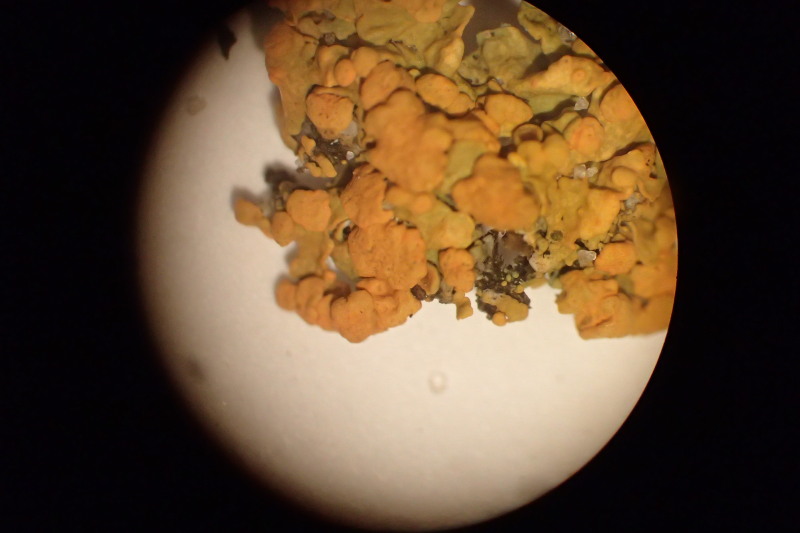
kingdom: Fungi
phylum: Ascomycota
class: Lecanoromycetes
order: Teloschistales
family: Teloschistaceae
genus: Polycauliona
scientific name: Polycauliona polycarpa
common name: mangefrugtet orangelav
